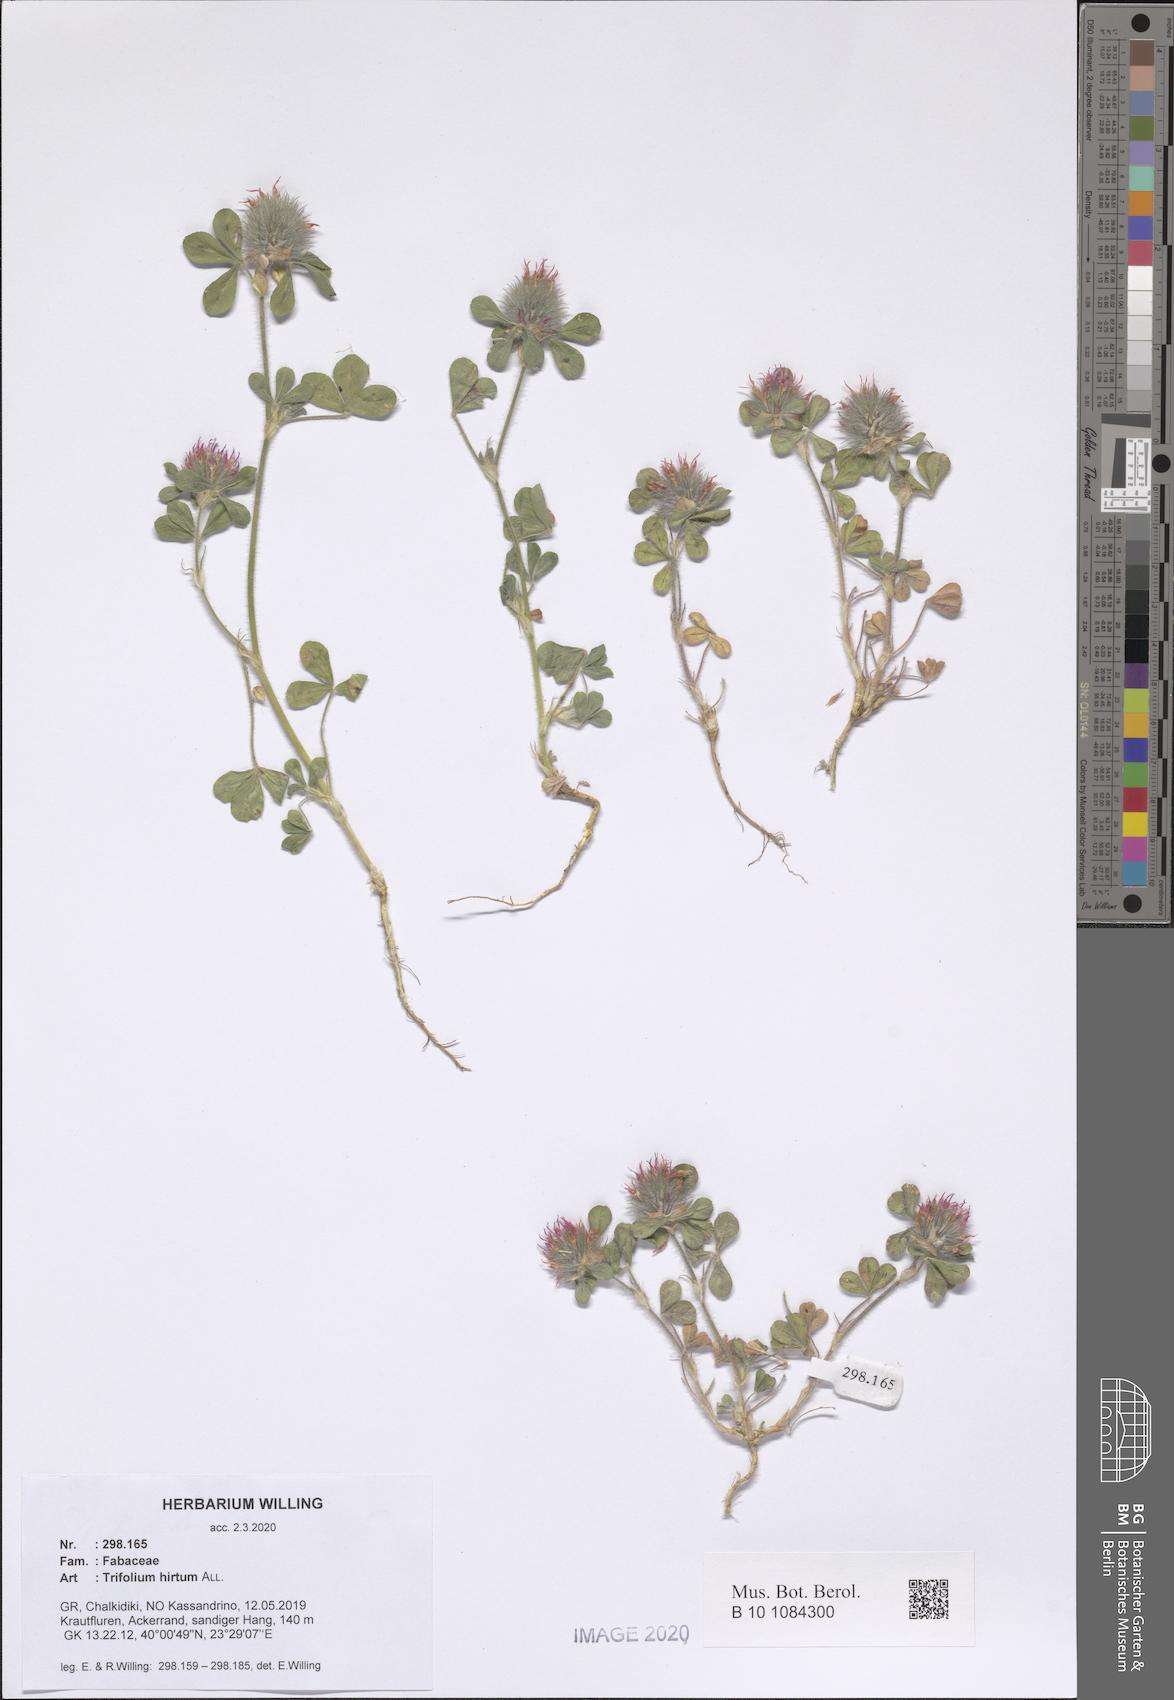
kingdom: Plantae
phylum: Tracheophyta
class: Magnoliopsida
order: Fabales
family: Fabaceae
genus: Trifolium
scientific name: Trifolium hirtum
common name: Rose clover
